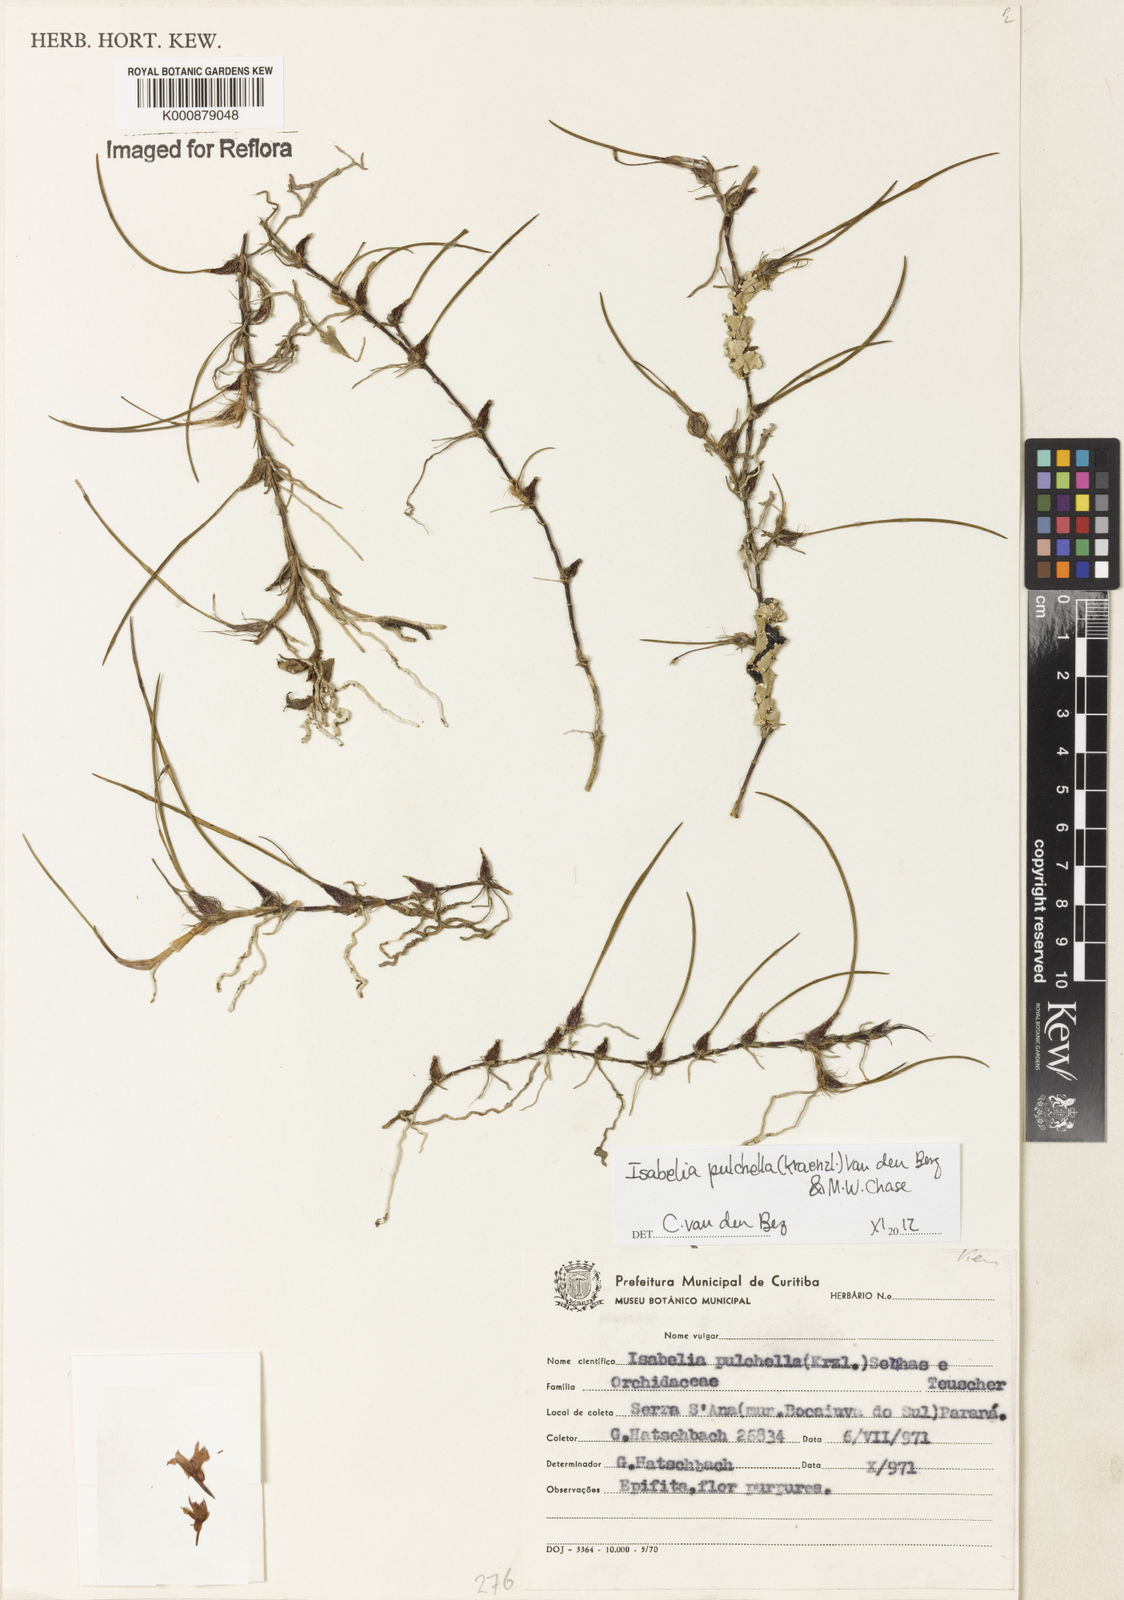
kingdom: Plantae
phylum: Tracheophyta
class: Liliopsida
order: Asparagales
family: Orchidaceae
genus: Isabelia
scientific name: Isabelia
